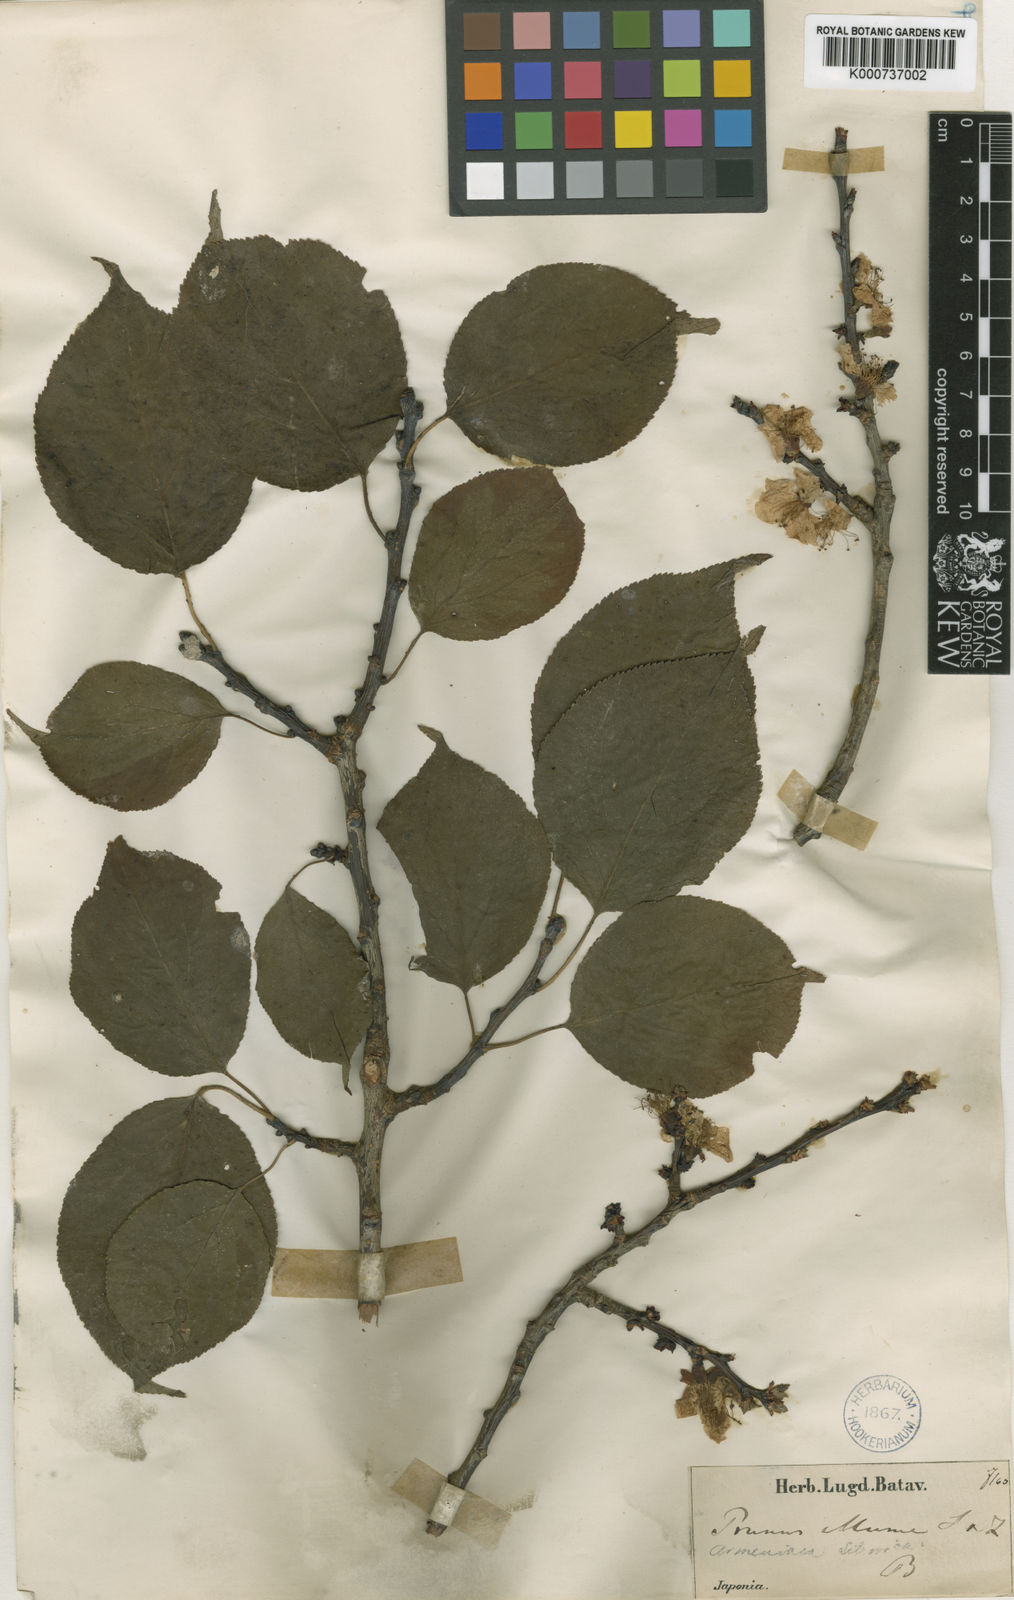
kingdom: Plantae
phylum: Tracheophyta
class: Magnoliopsida
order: Rosales
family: Rosaceae
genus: Prunus
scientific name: Prunus mume
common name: Japanese apricot
